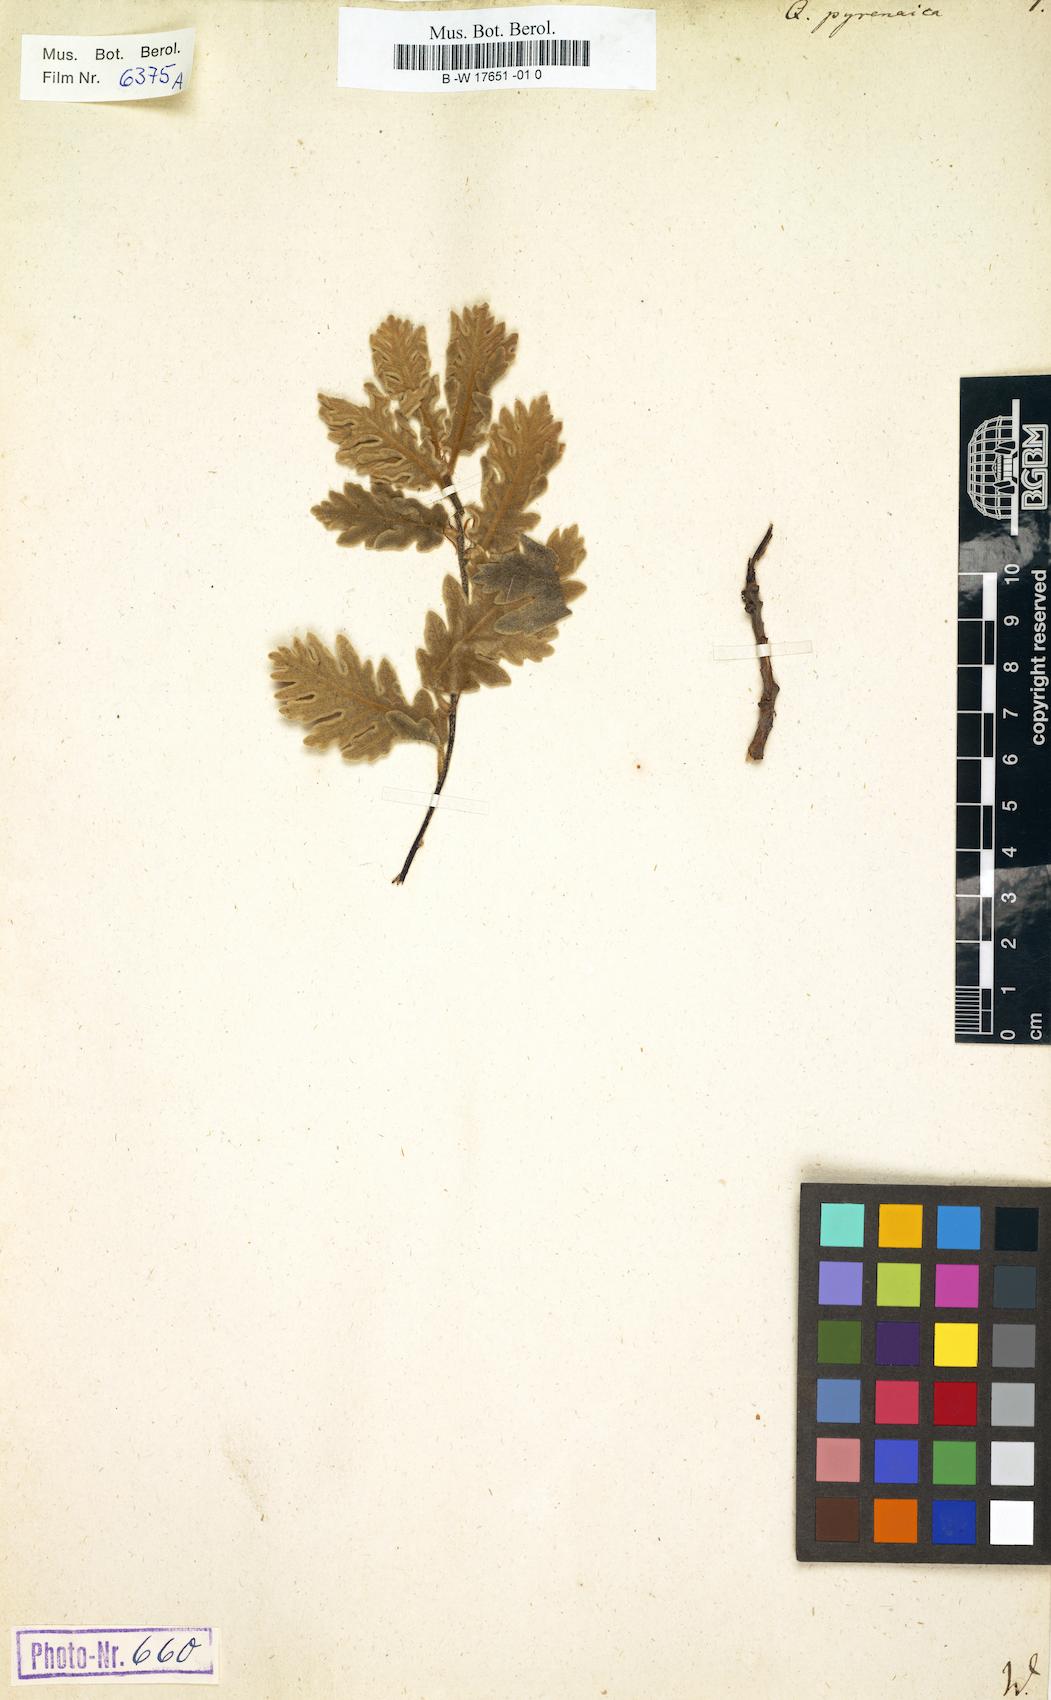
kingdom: Plantae
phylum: Tracheophyta
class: Magnoliopsida
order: Fagales
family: Fagaceae
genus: Quercus
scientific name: Quercus pyrenaica
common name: Pyrenean oak
